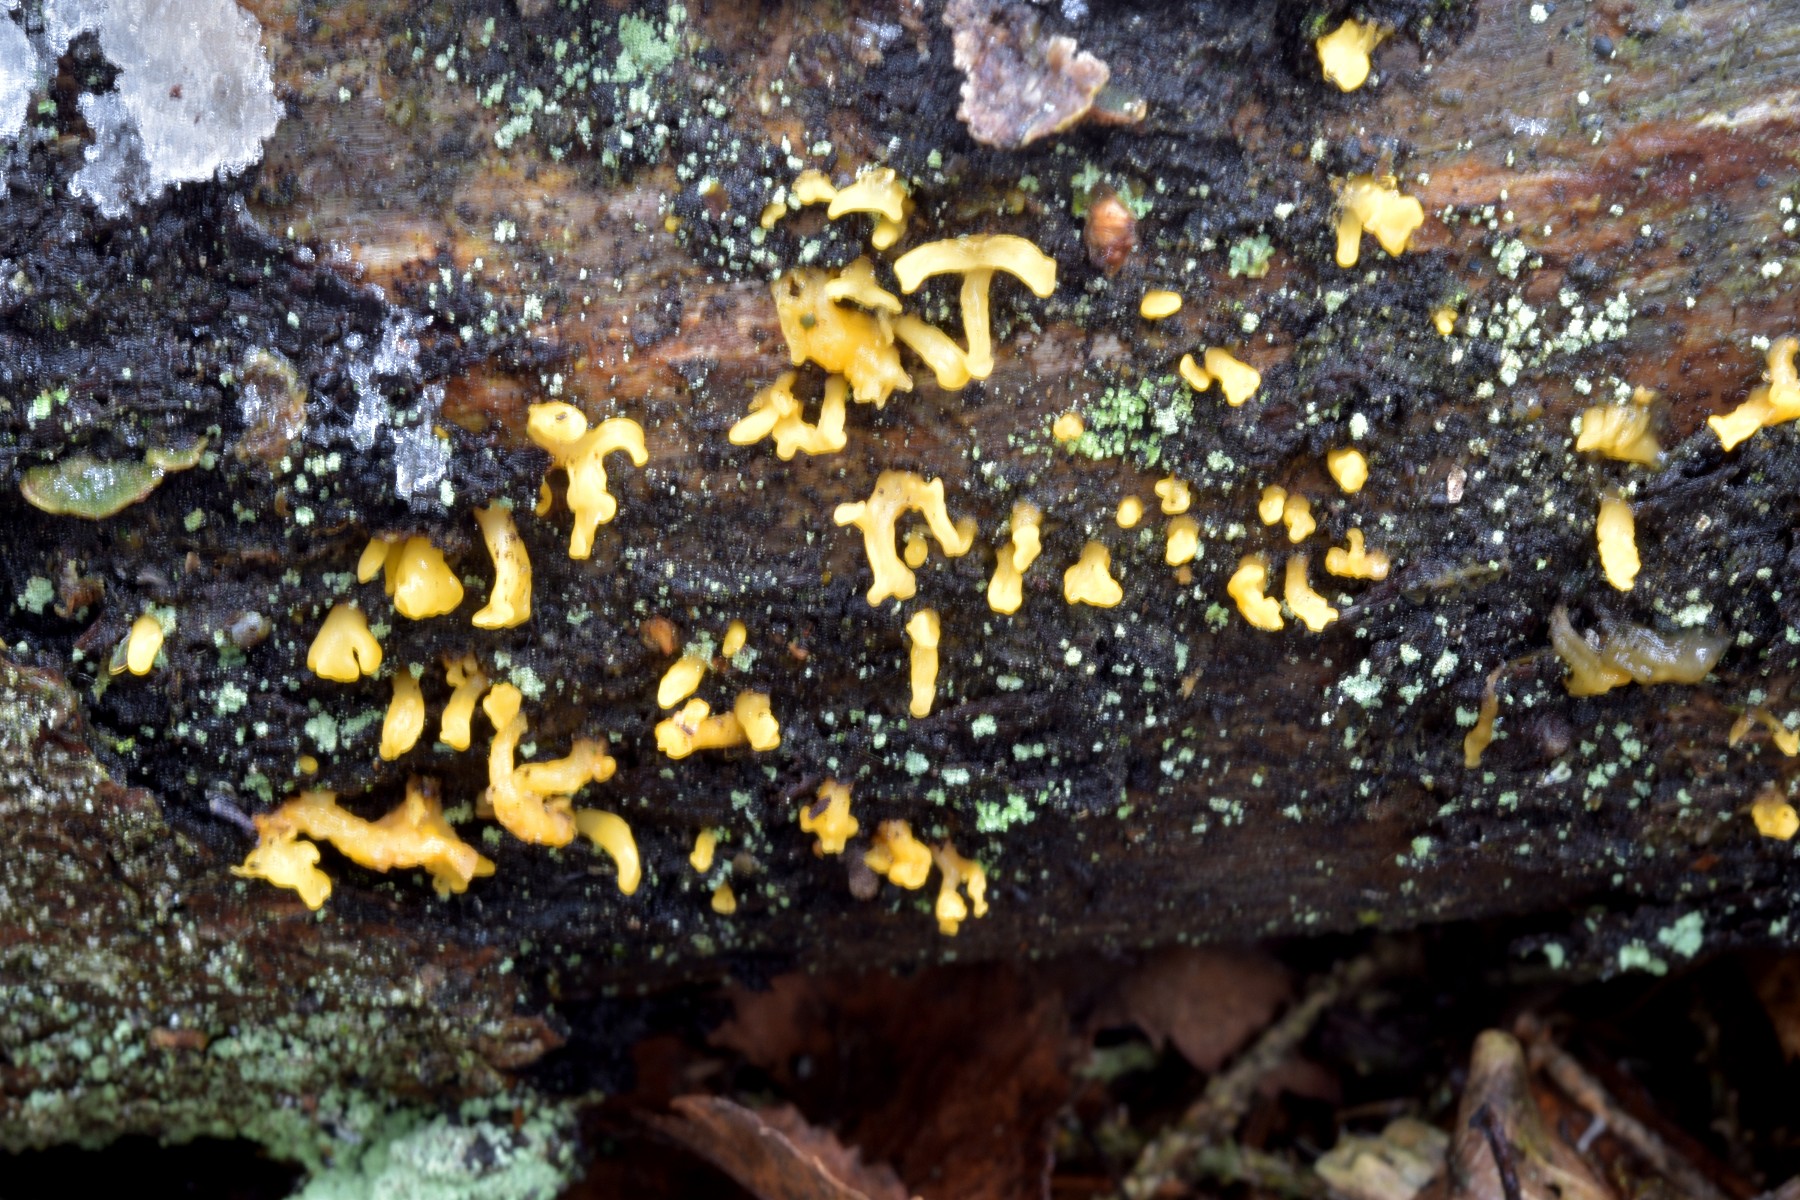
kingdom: Fungi
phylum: Basidiomycota
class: Dacrymycetes
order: Dacrymycetales
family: Dacrymycetaceae
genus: Calocera
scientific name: Calocera furcata
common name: fyrre-guldgaffel
